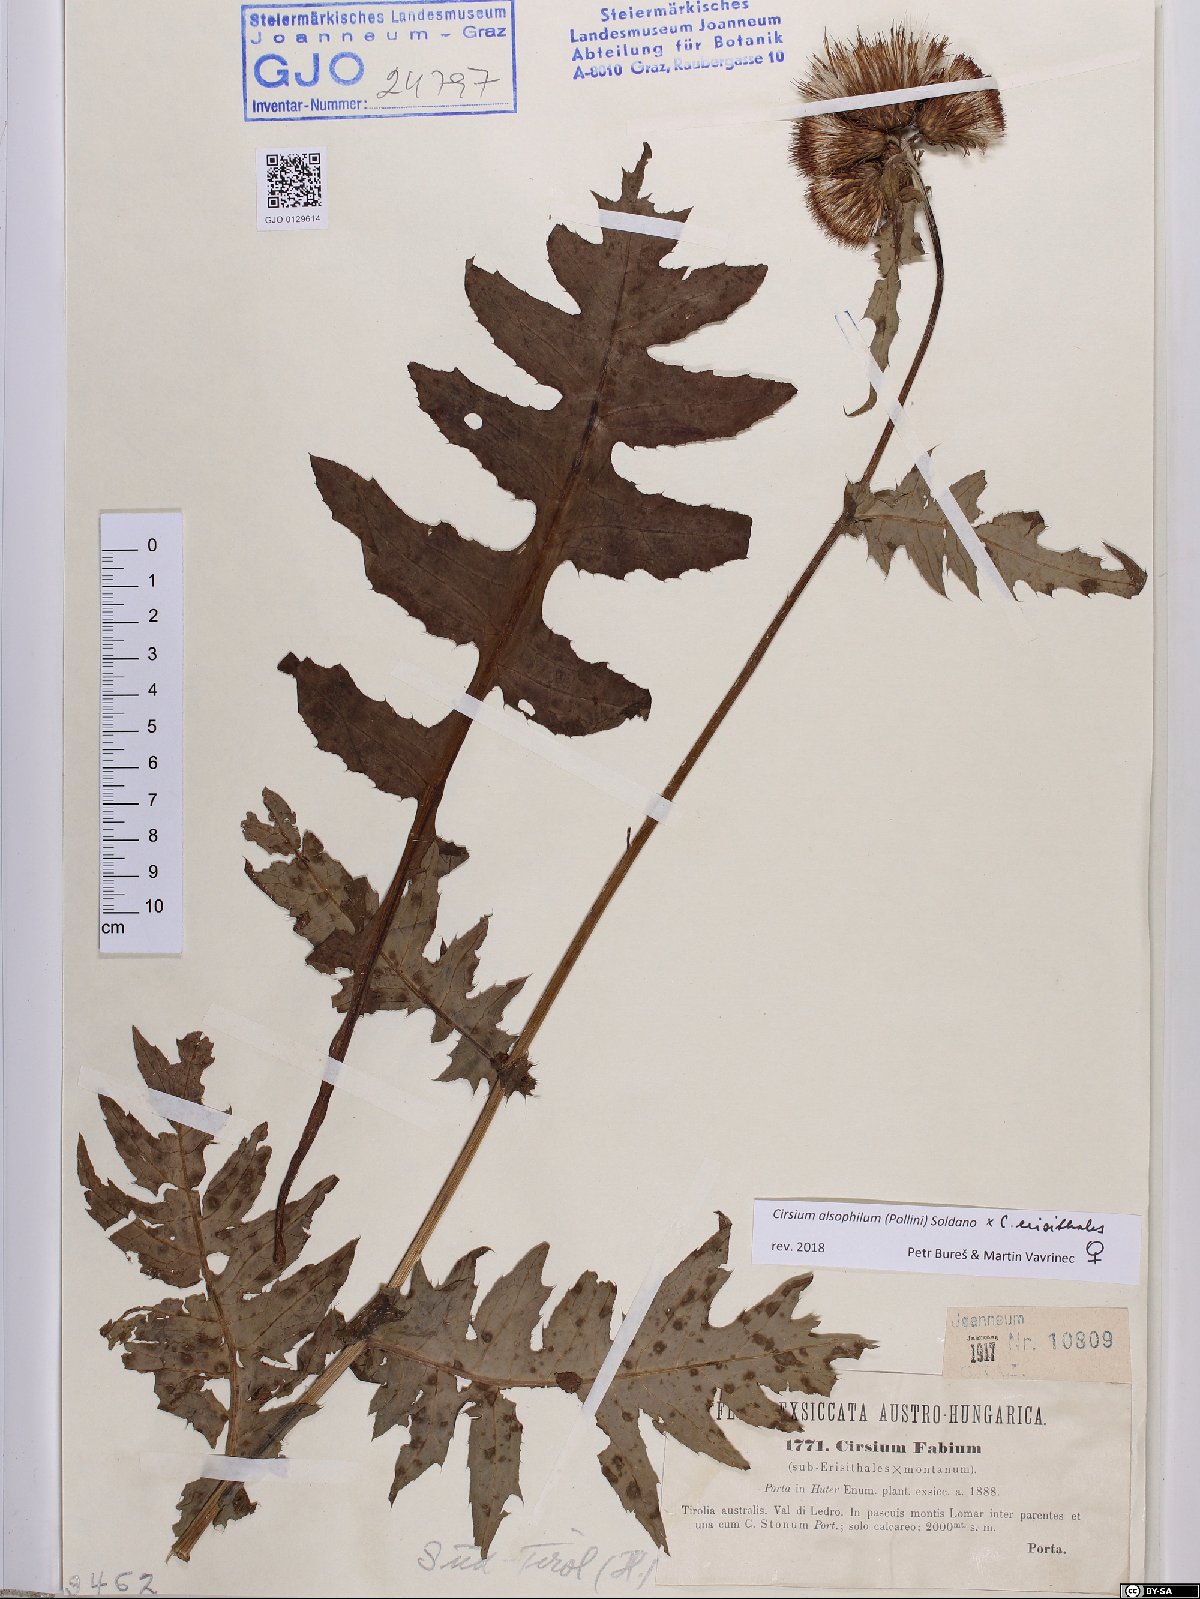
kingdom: Plantae
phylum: Tracheophyta
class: Magnoliopsida
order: Asterales
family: Asteraceae
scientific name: Asteraceae
